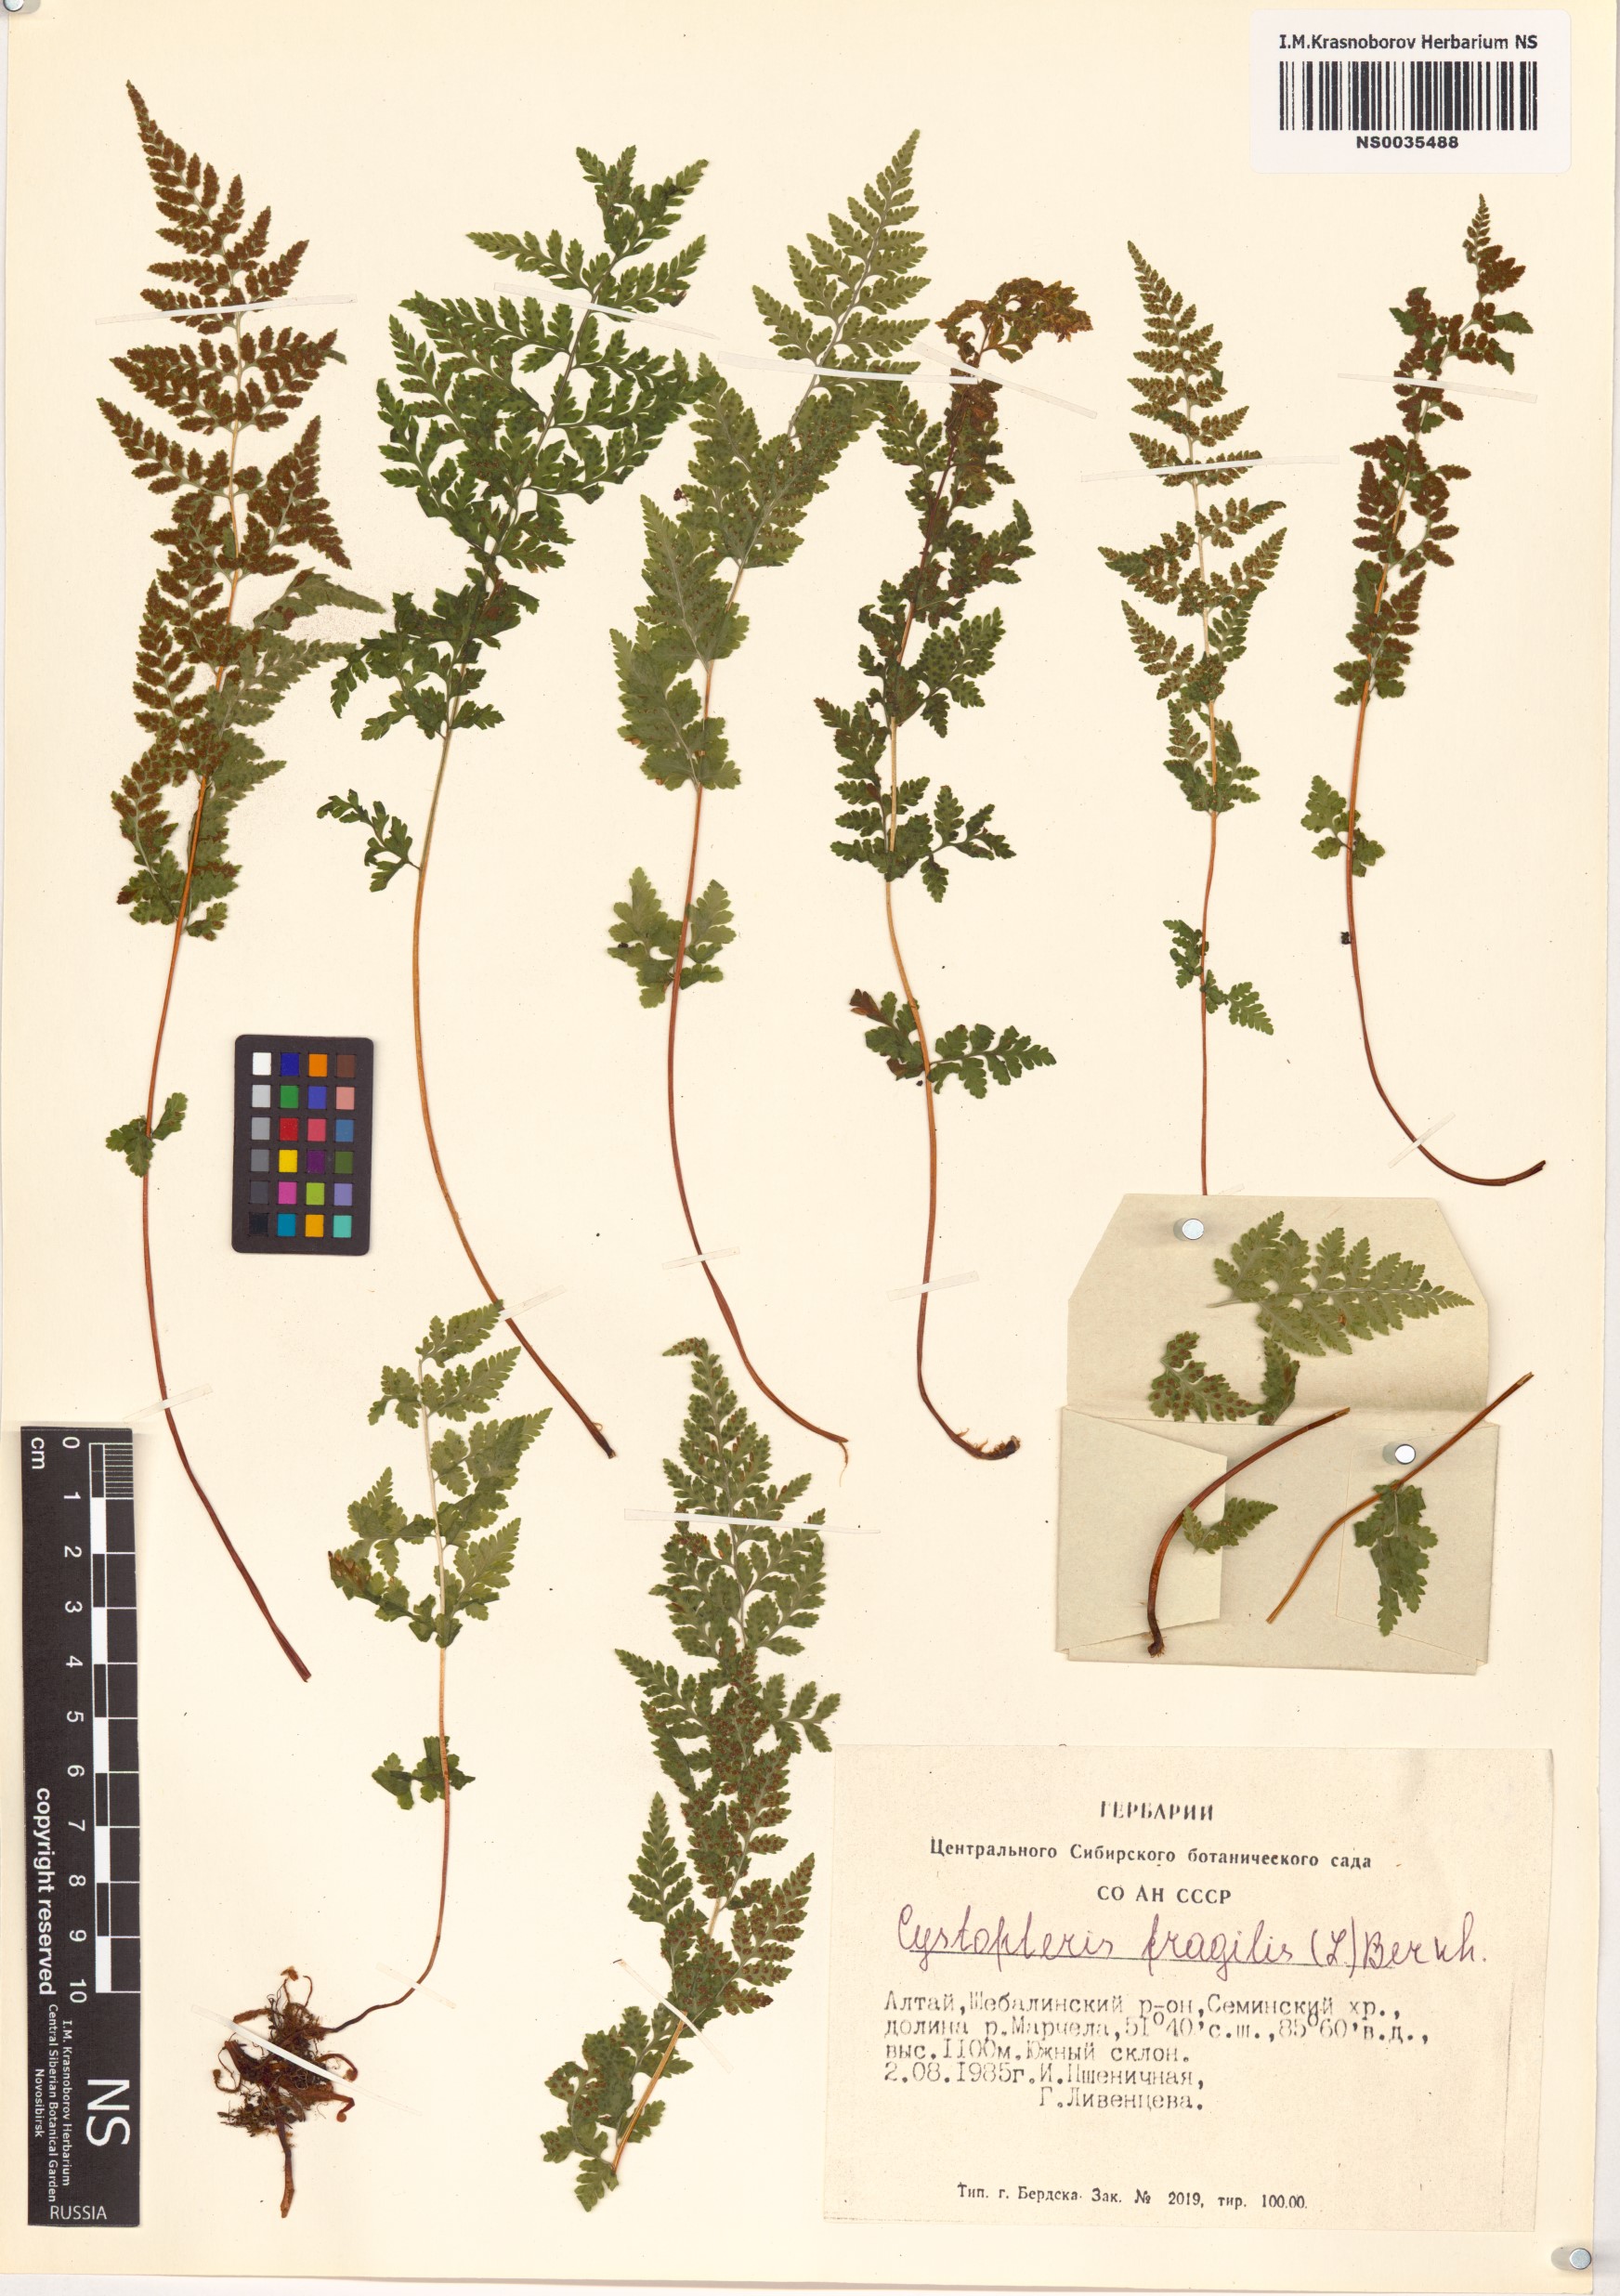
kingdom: Plantae
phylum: Tracheophyta
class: Polypodiopsida
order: Polypodiales
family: Cystopteridaceae
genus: Cystopteris
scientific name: Cystopteris fragilis
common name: Brittle bladder fern
